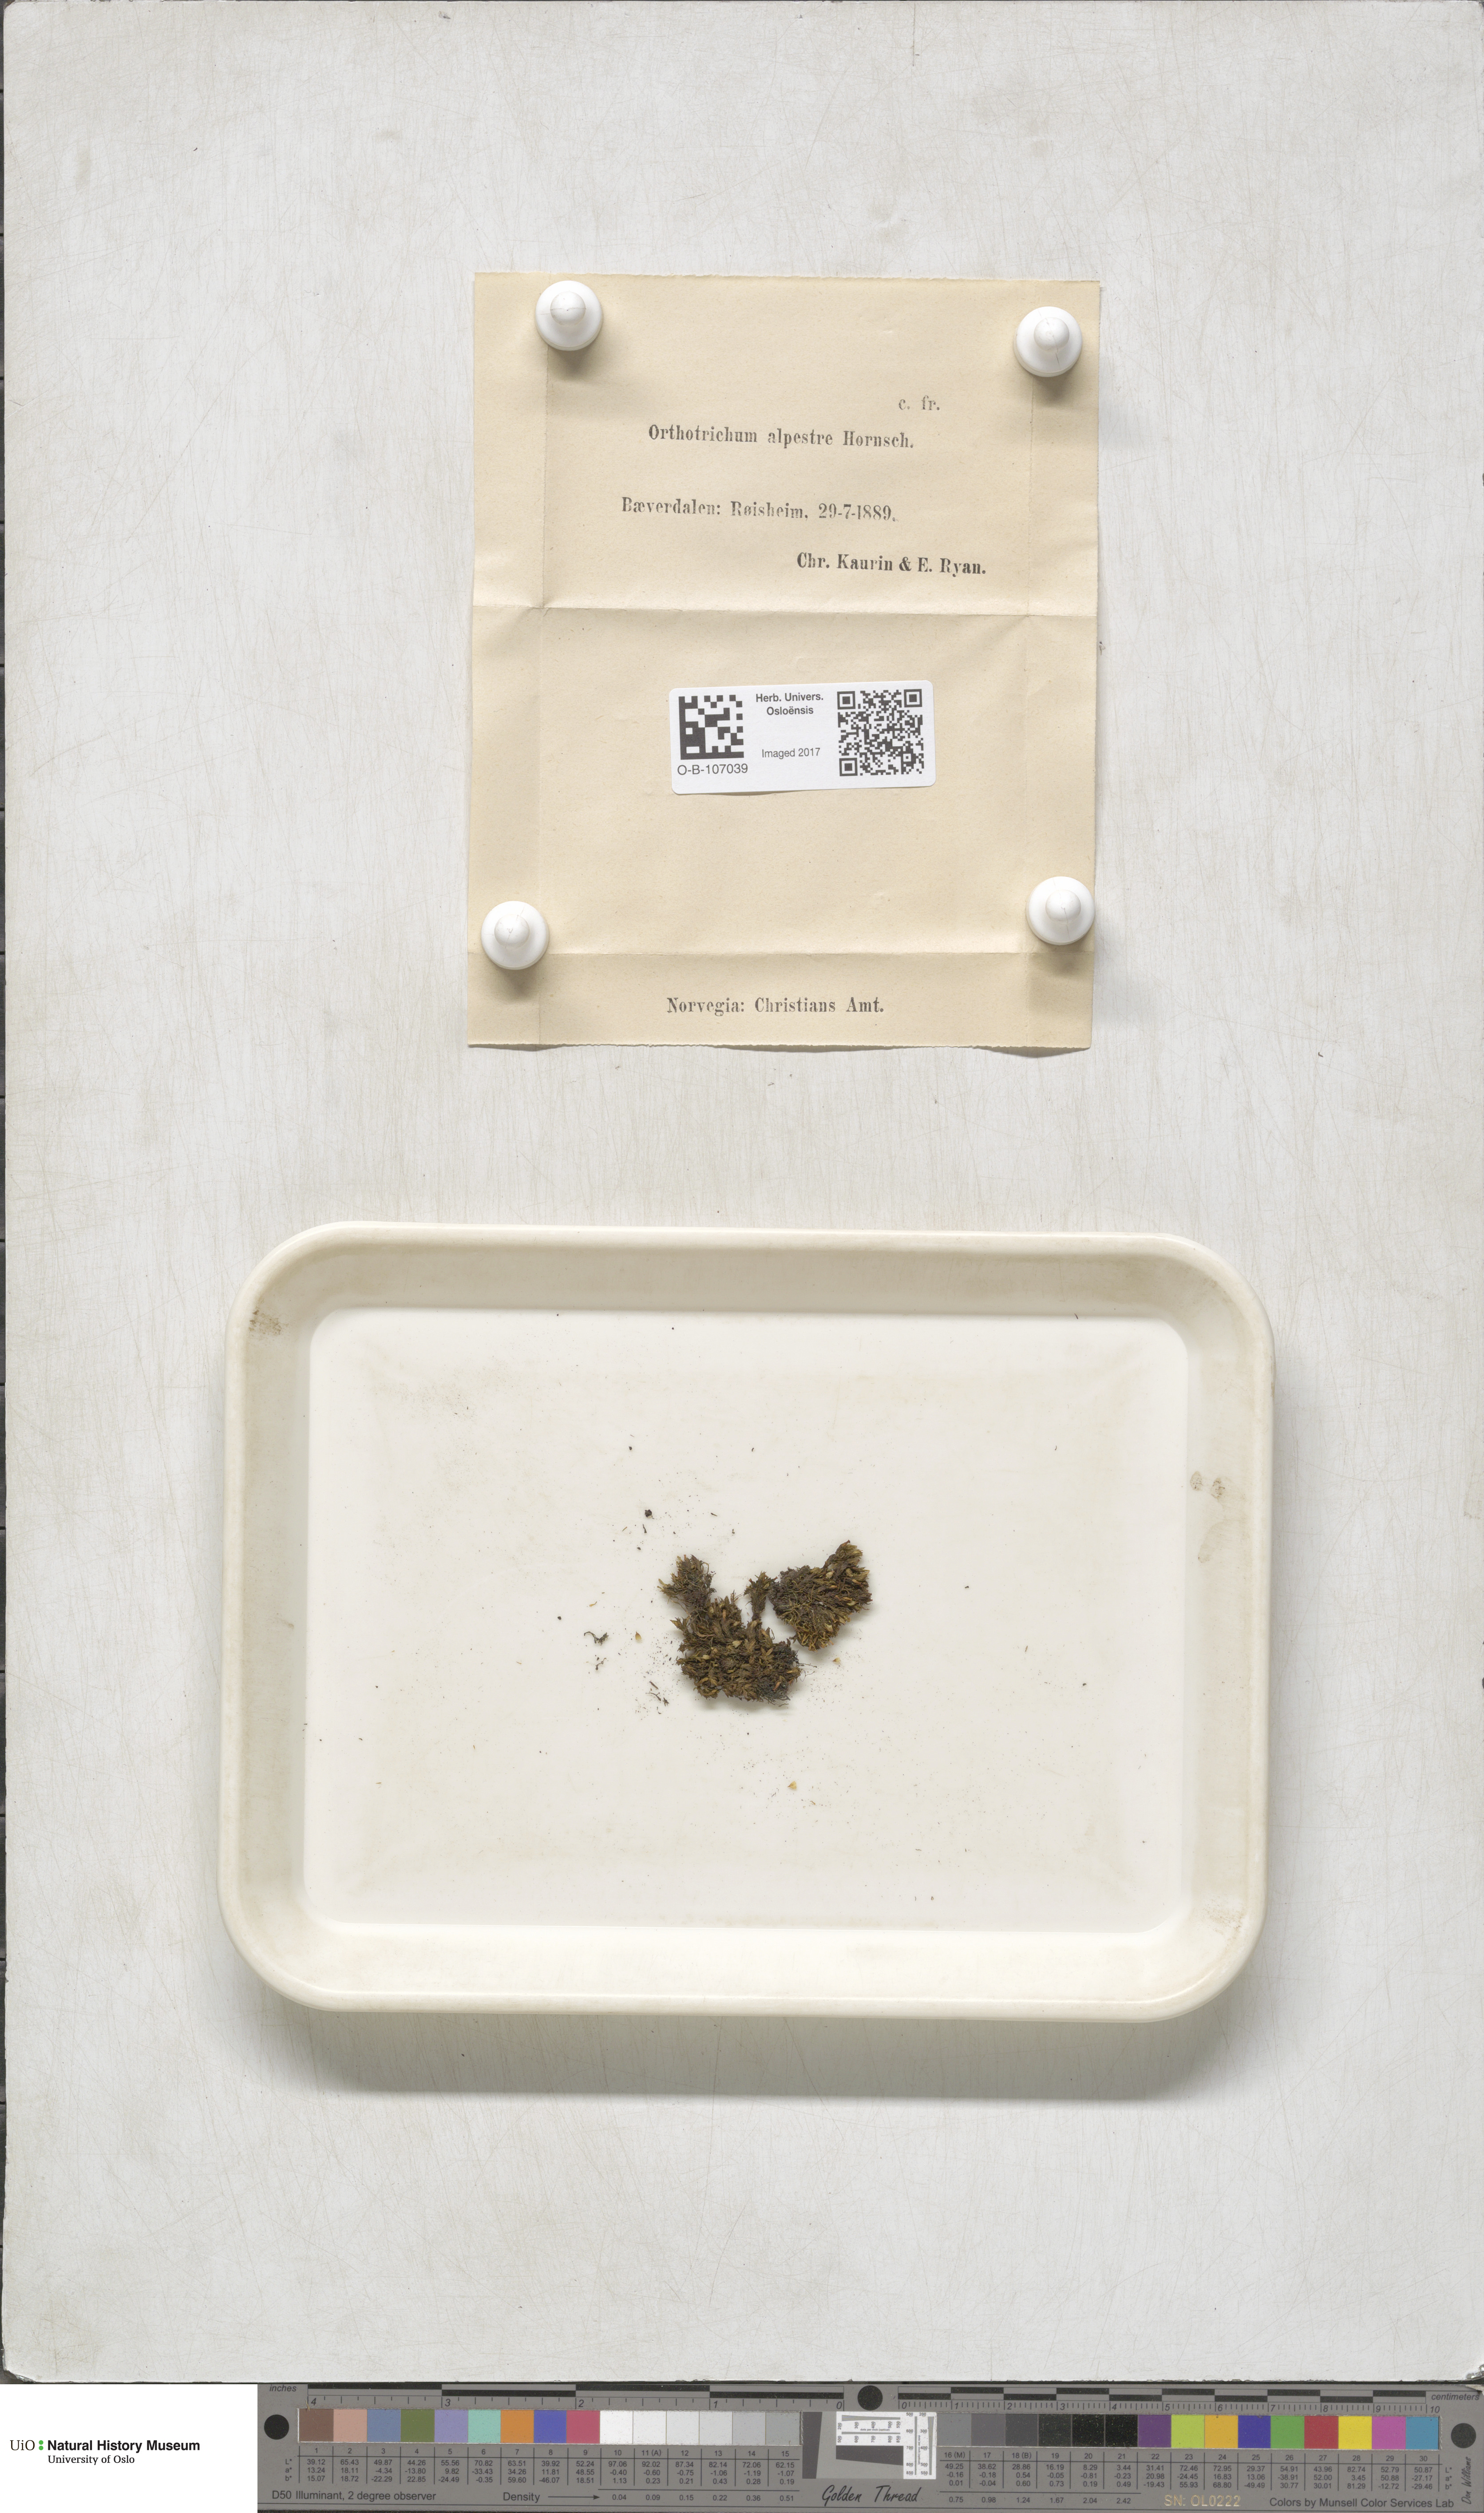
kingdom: Plantae
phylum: Bryophyta
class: Bryopsida
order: Orthotrichales
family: Orthotrichaceae
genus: Orthotrichum
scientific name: Orthotrichum alpestre
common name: Sharp-leaved bristle moss
